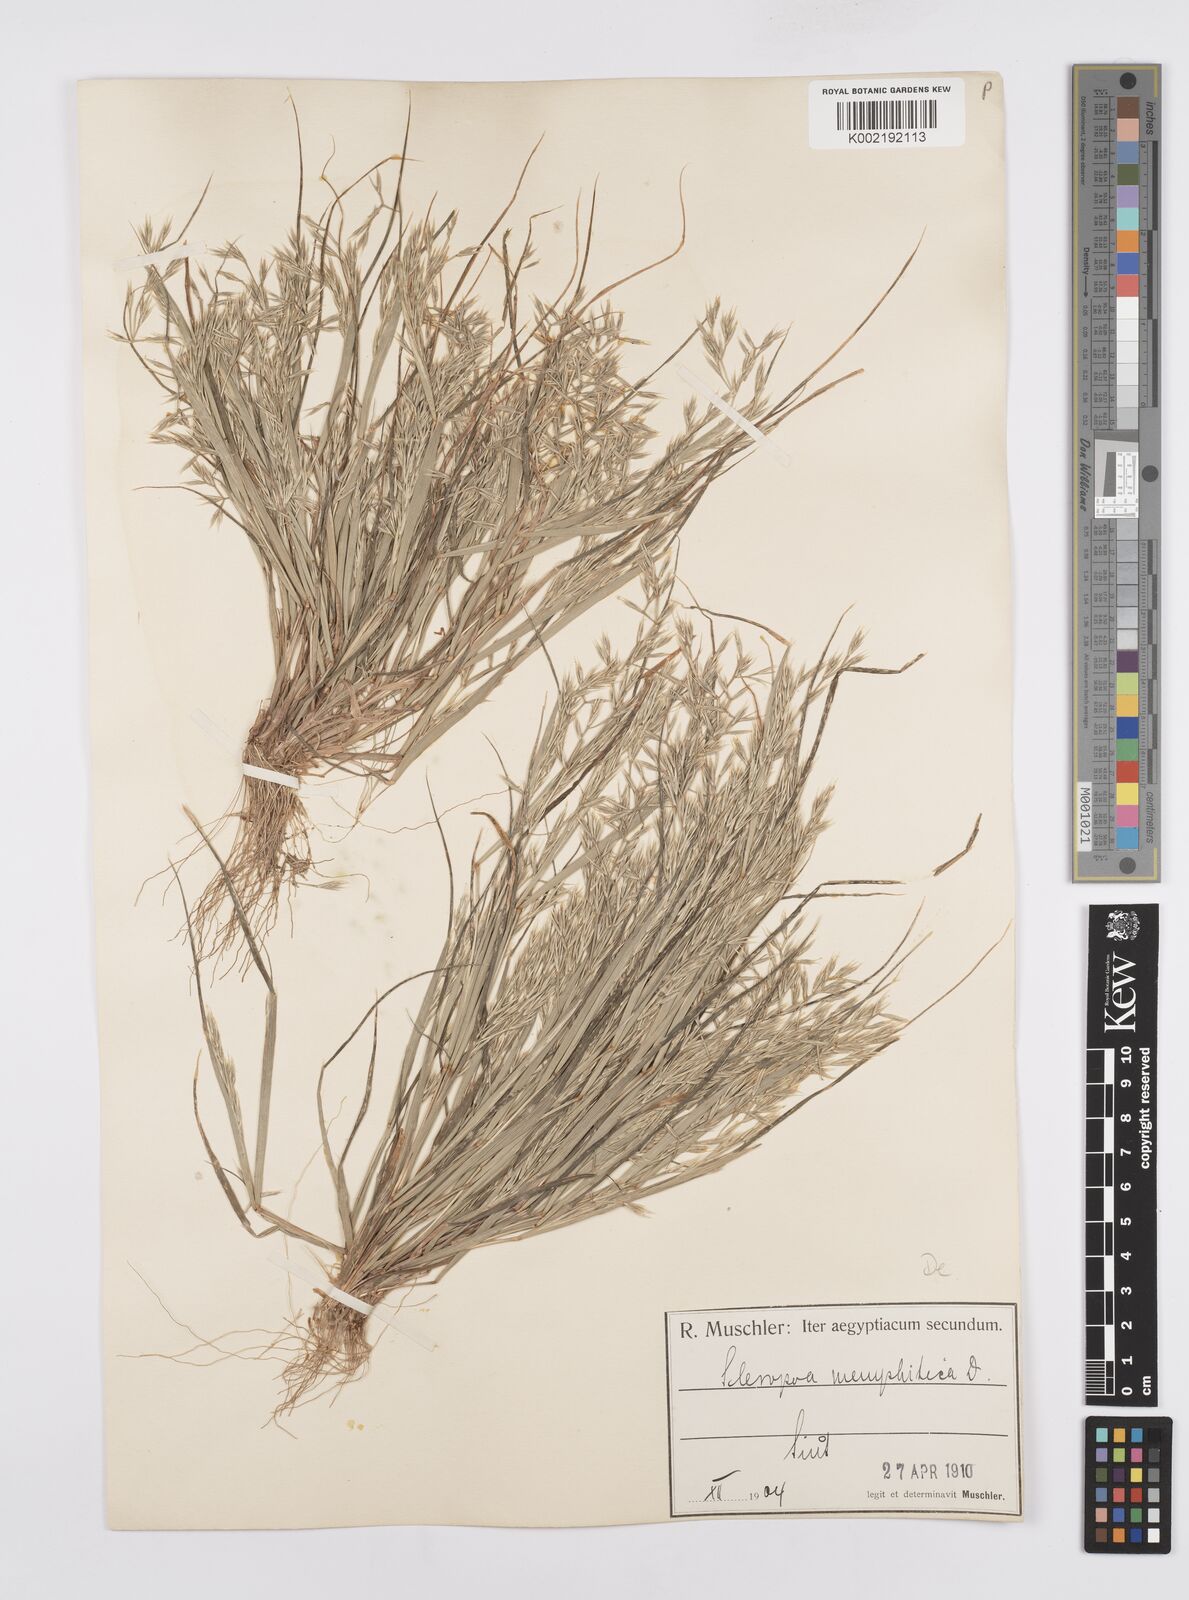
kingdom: Plantae
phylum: Tracheophyta
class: Liliopsida
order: Poales
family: Poaceae
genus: Cutandia
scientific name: Cutandia memphitica
